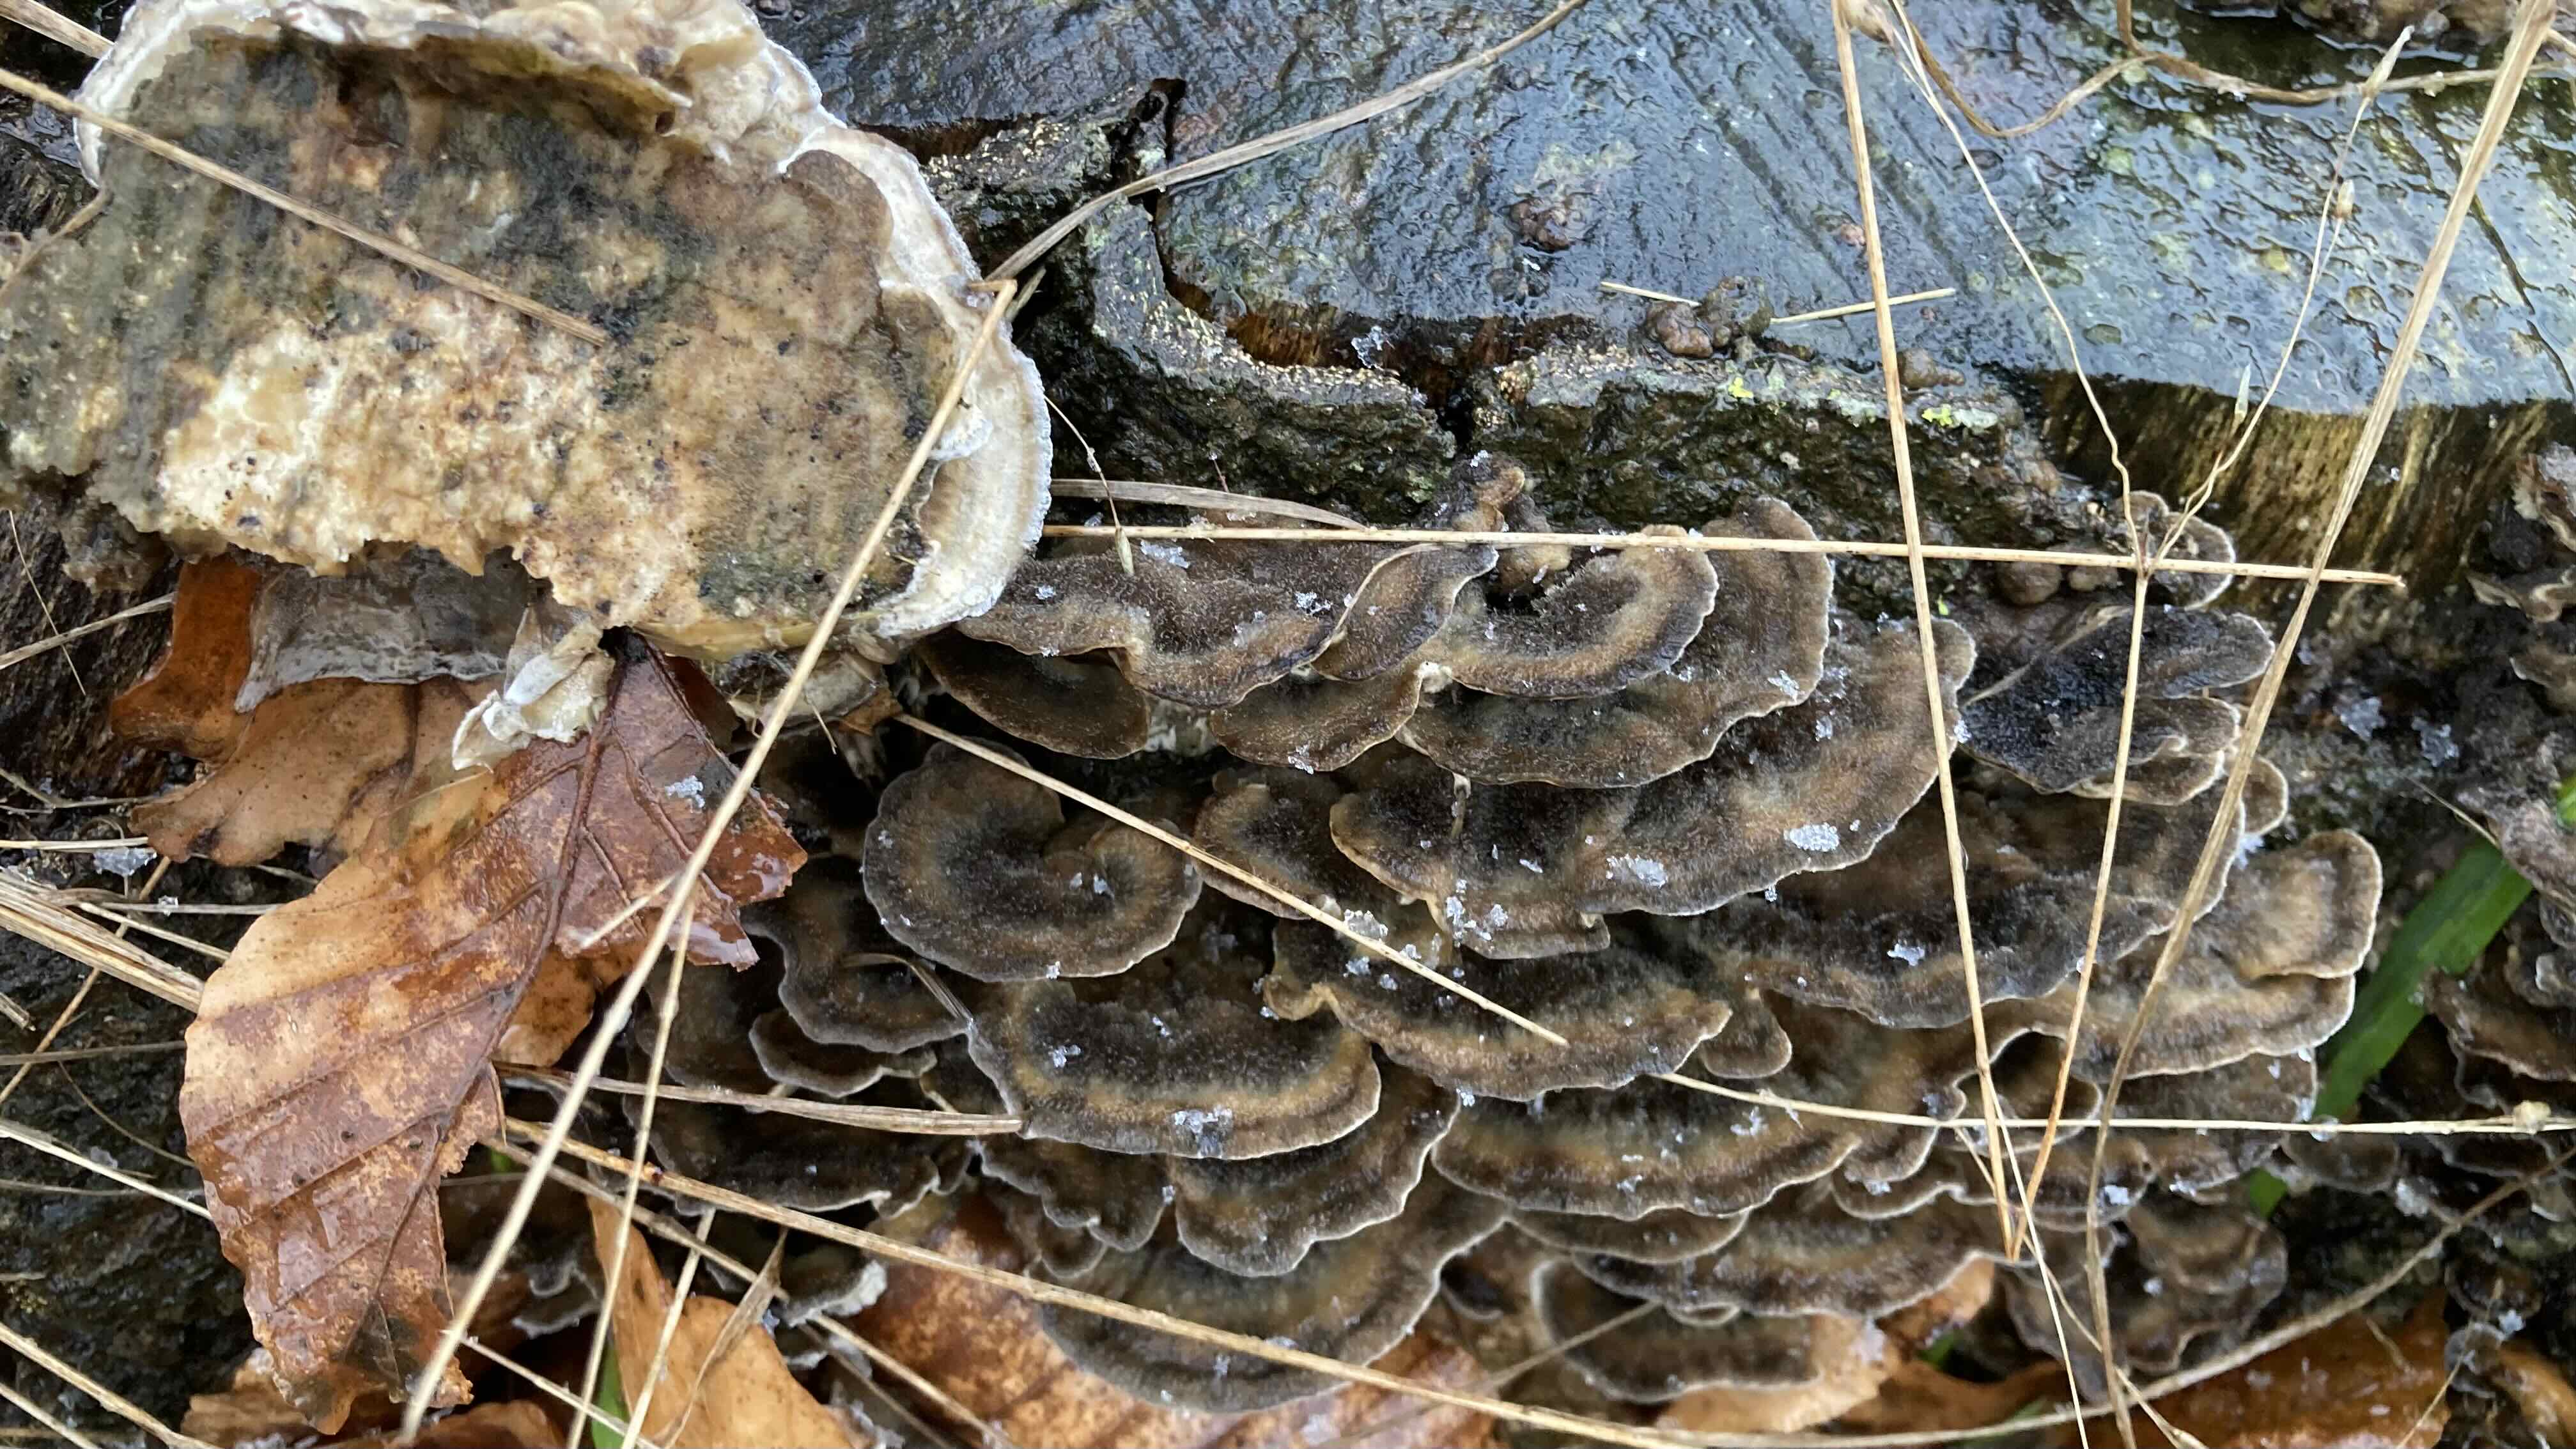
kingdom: Fungi
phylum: Basidiomycota
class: Agaricomycetes
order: Polyporales
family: Phanerochaetaceae
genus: Bjerkandera
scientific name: Bjerkandera adusta
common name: sveden sodporesvamp
